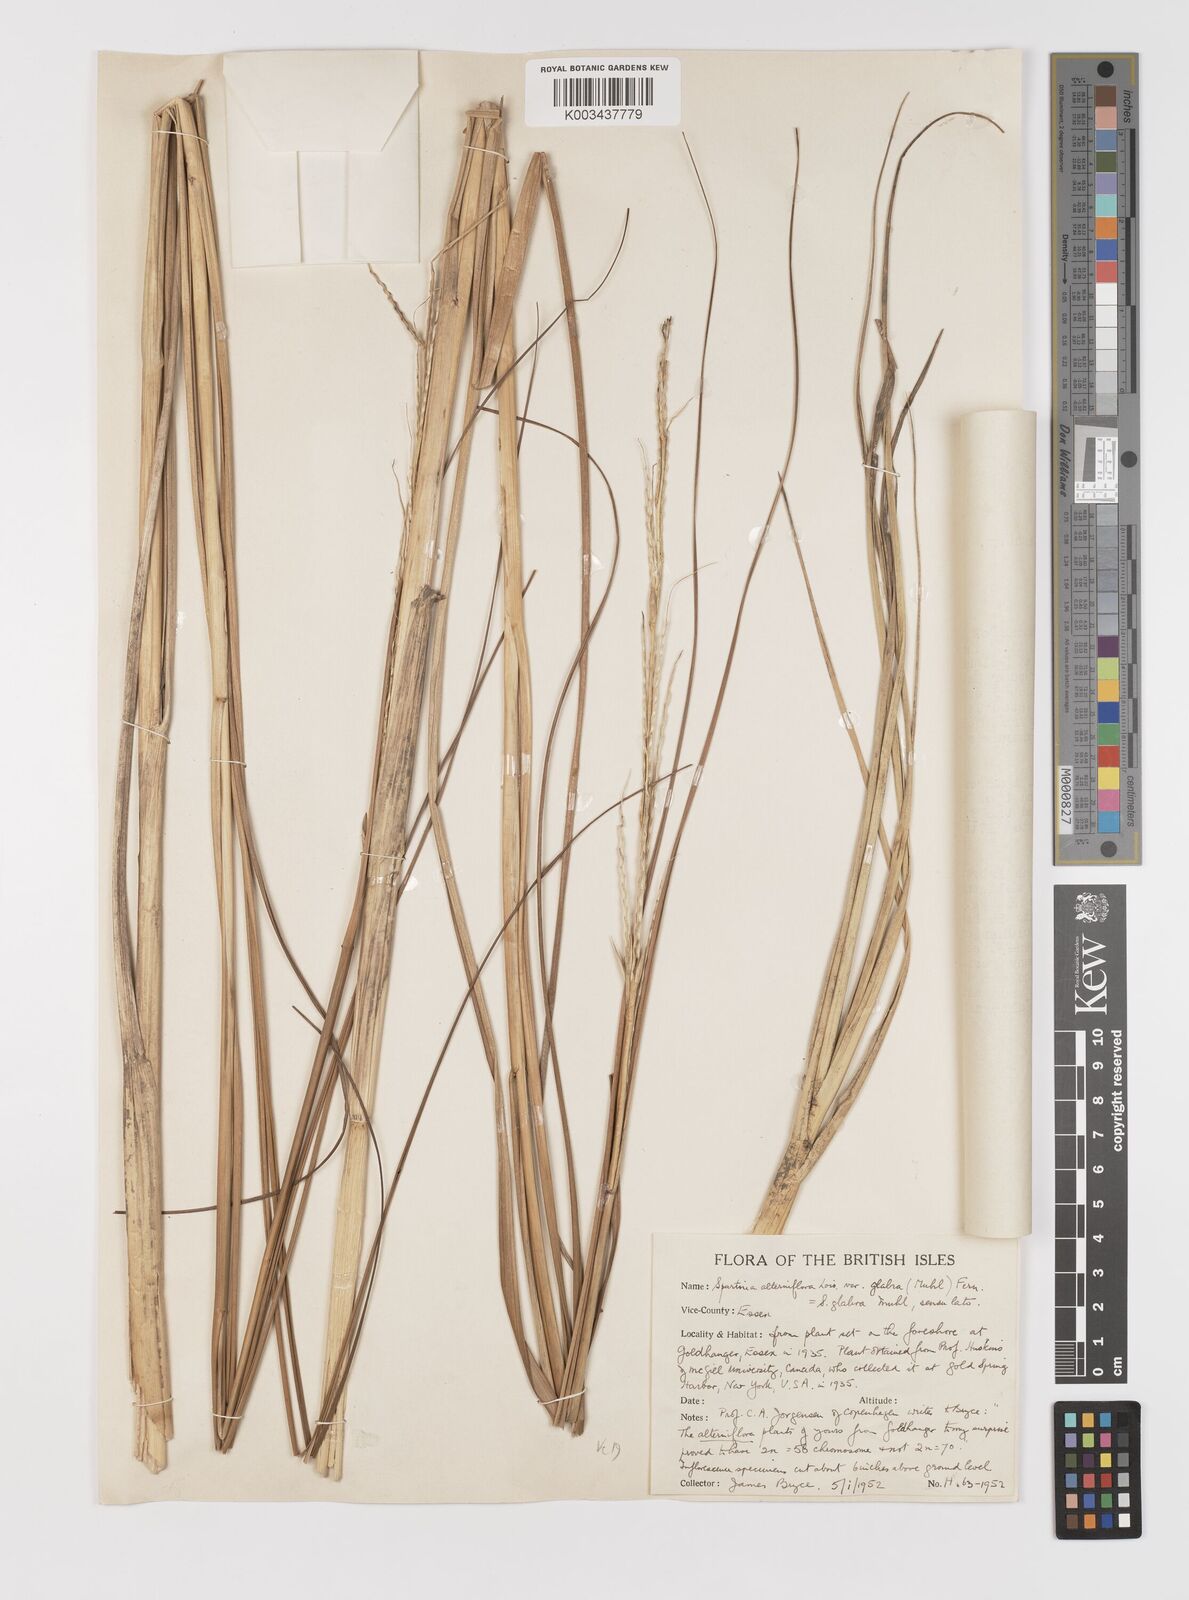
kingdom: Plantae
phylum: Tracheophyta
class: Liliopsida
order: Poales
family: Poaceae
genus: Sporobolus
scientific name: Sporobolus alterniflorus
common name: Atlantic cordgrass
